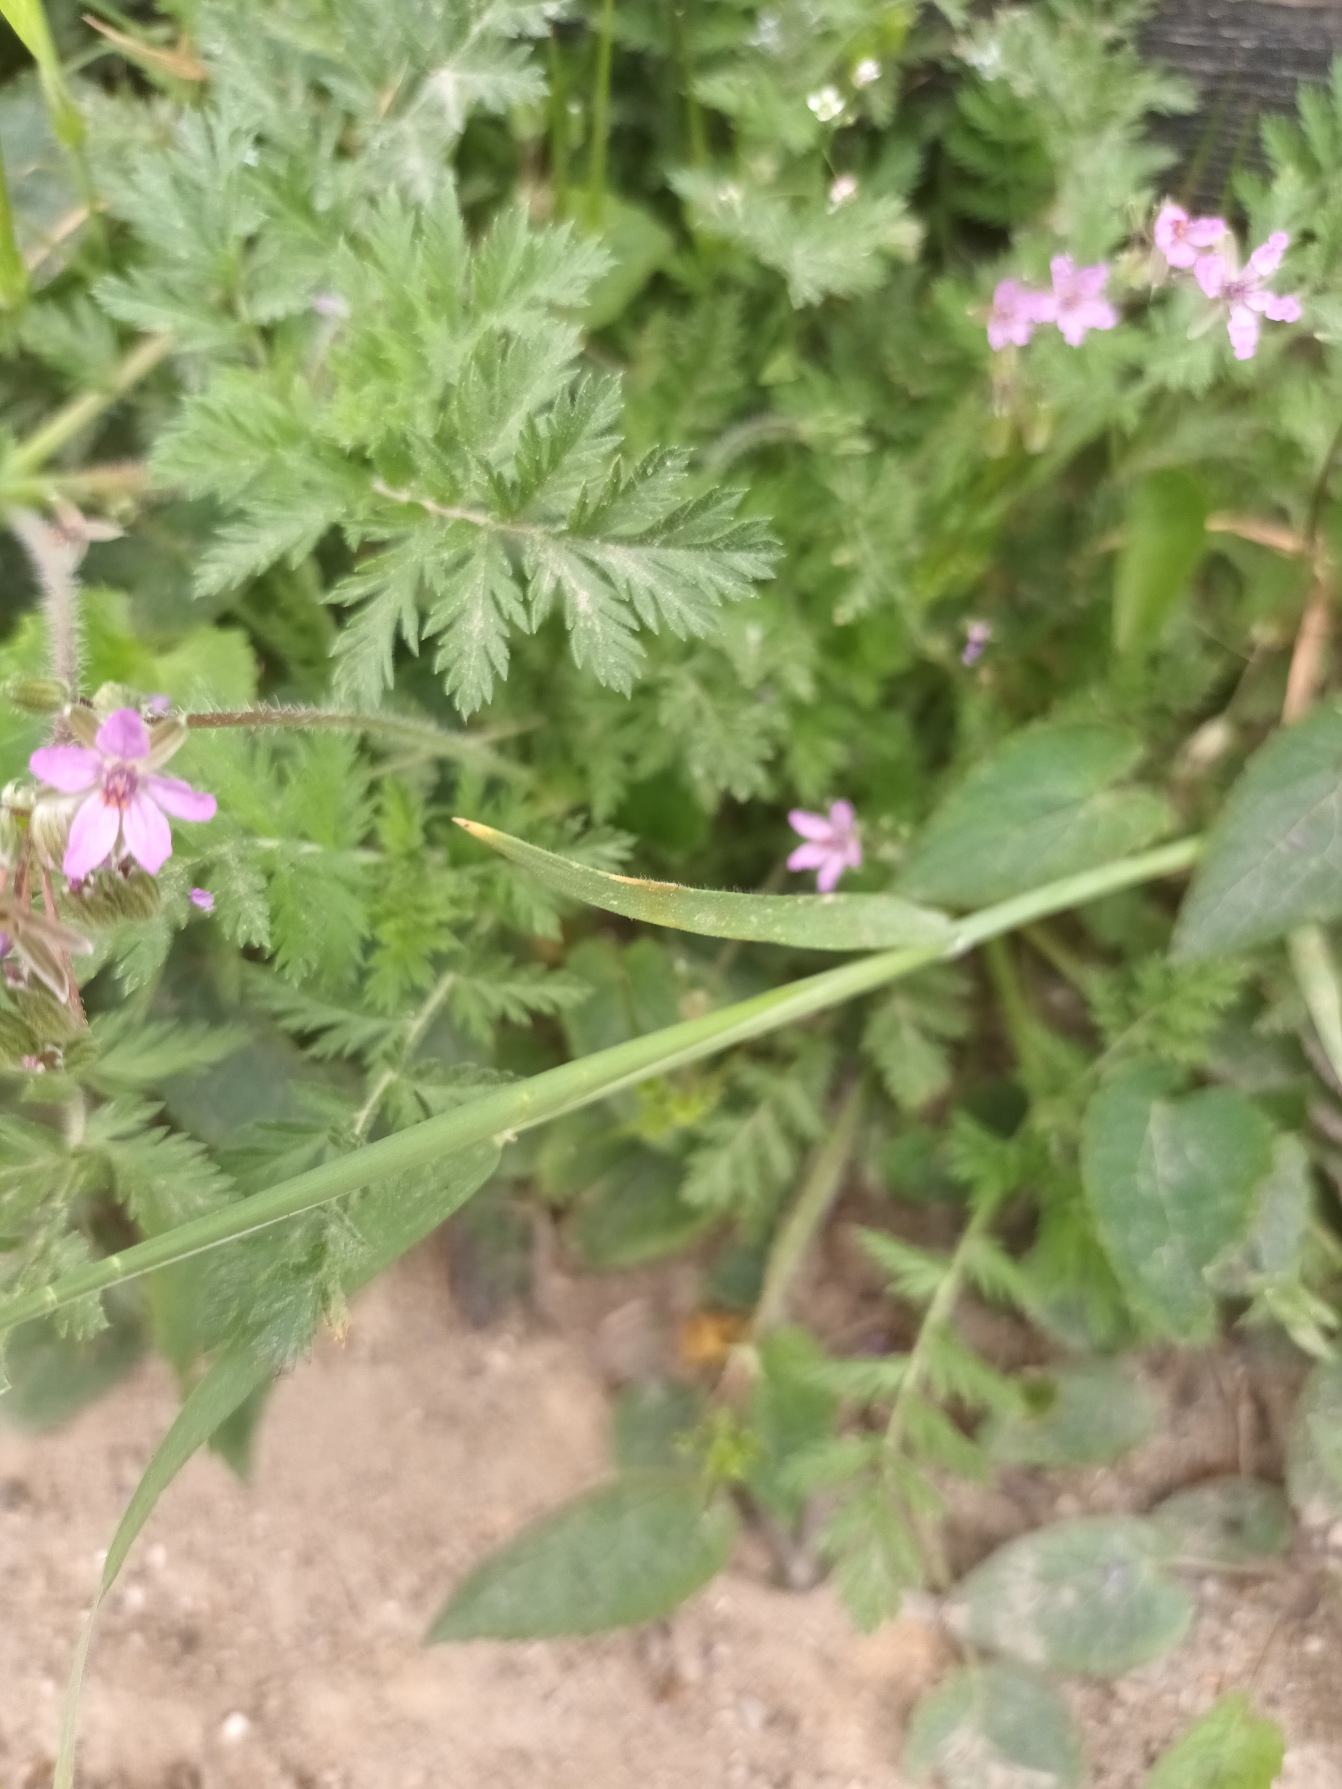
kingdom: Plantae
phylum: Tracheophyta
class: Magnoliopsida
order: Geraniales
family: Geraniaceae
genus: Erodium
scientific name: Erodium cicutarium
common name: Hejrenæb
